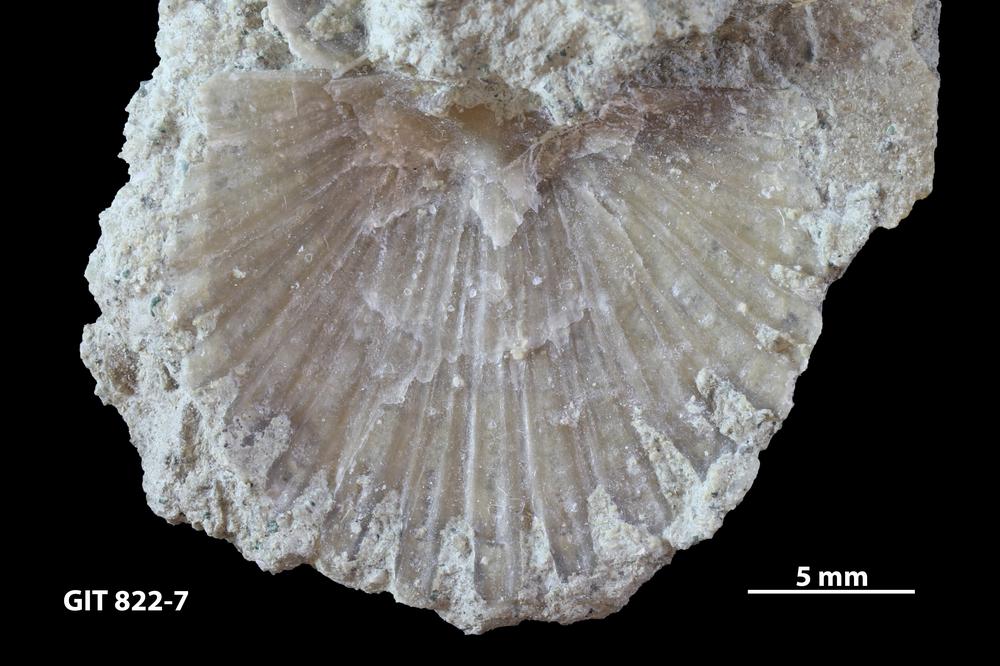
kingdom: Animalia
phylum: Brachiopoda
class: Rhynchonellata
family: Orthidae
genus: Orthambonites
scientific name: Orthambonites
